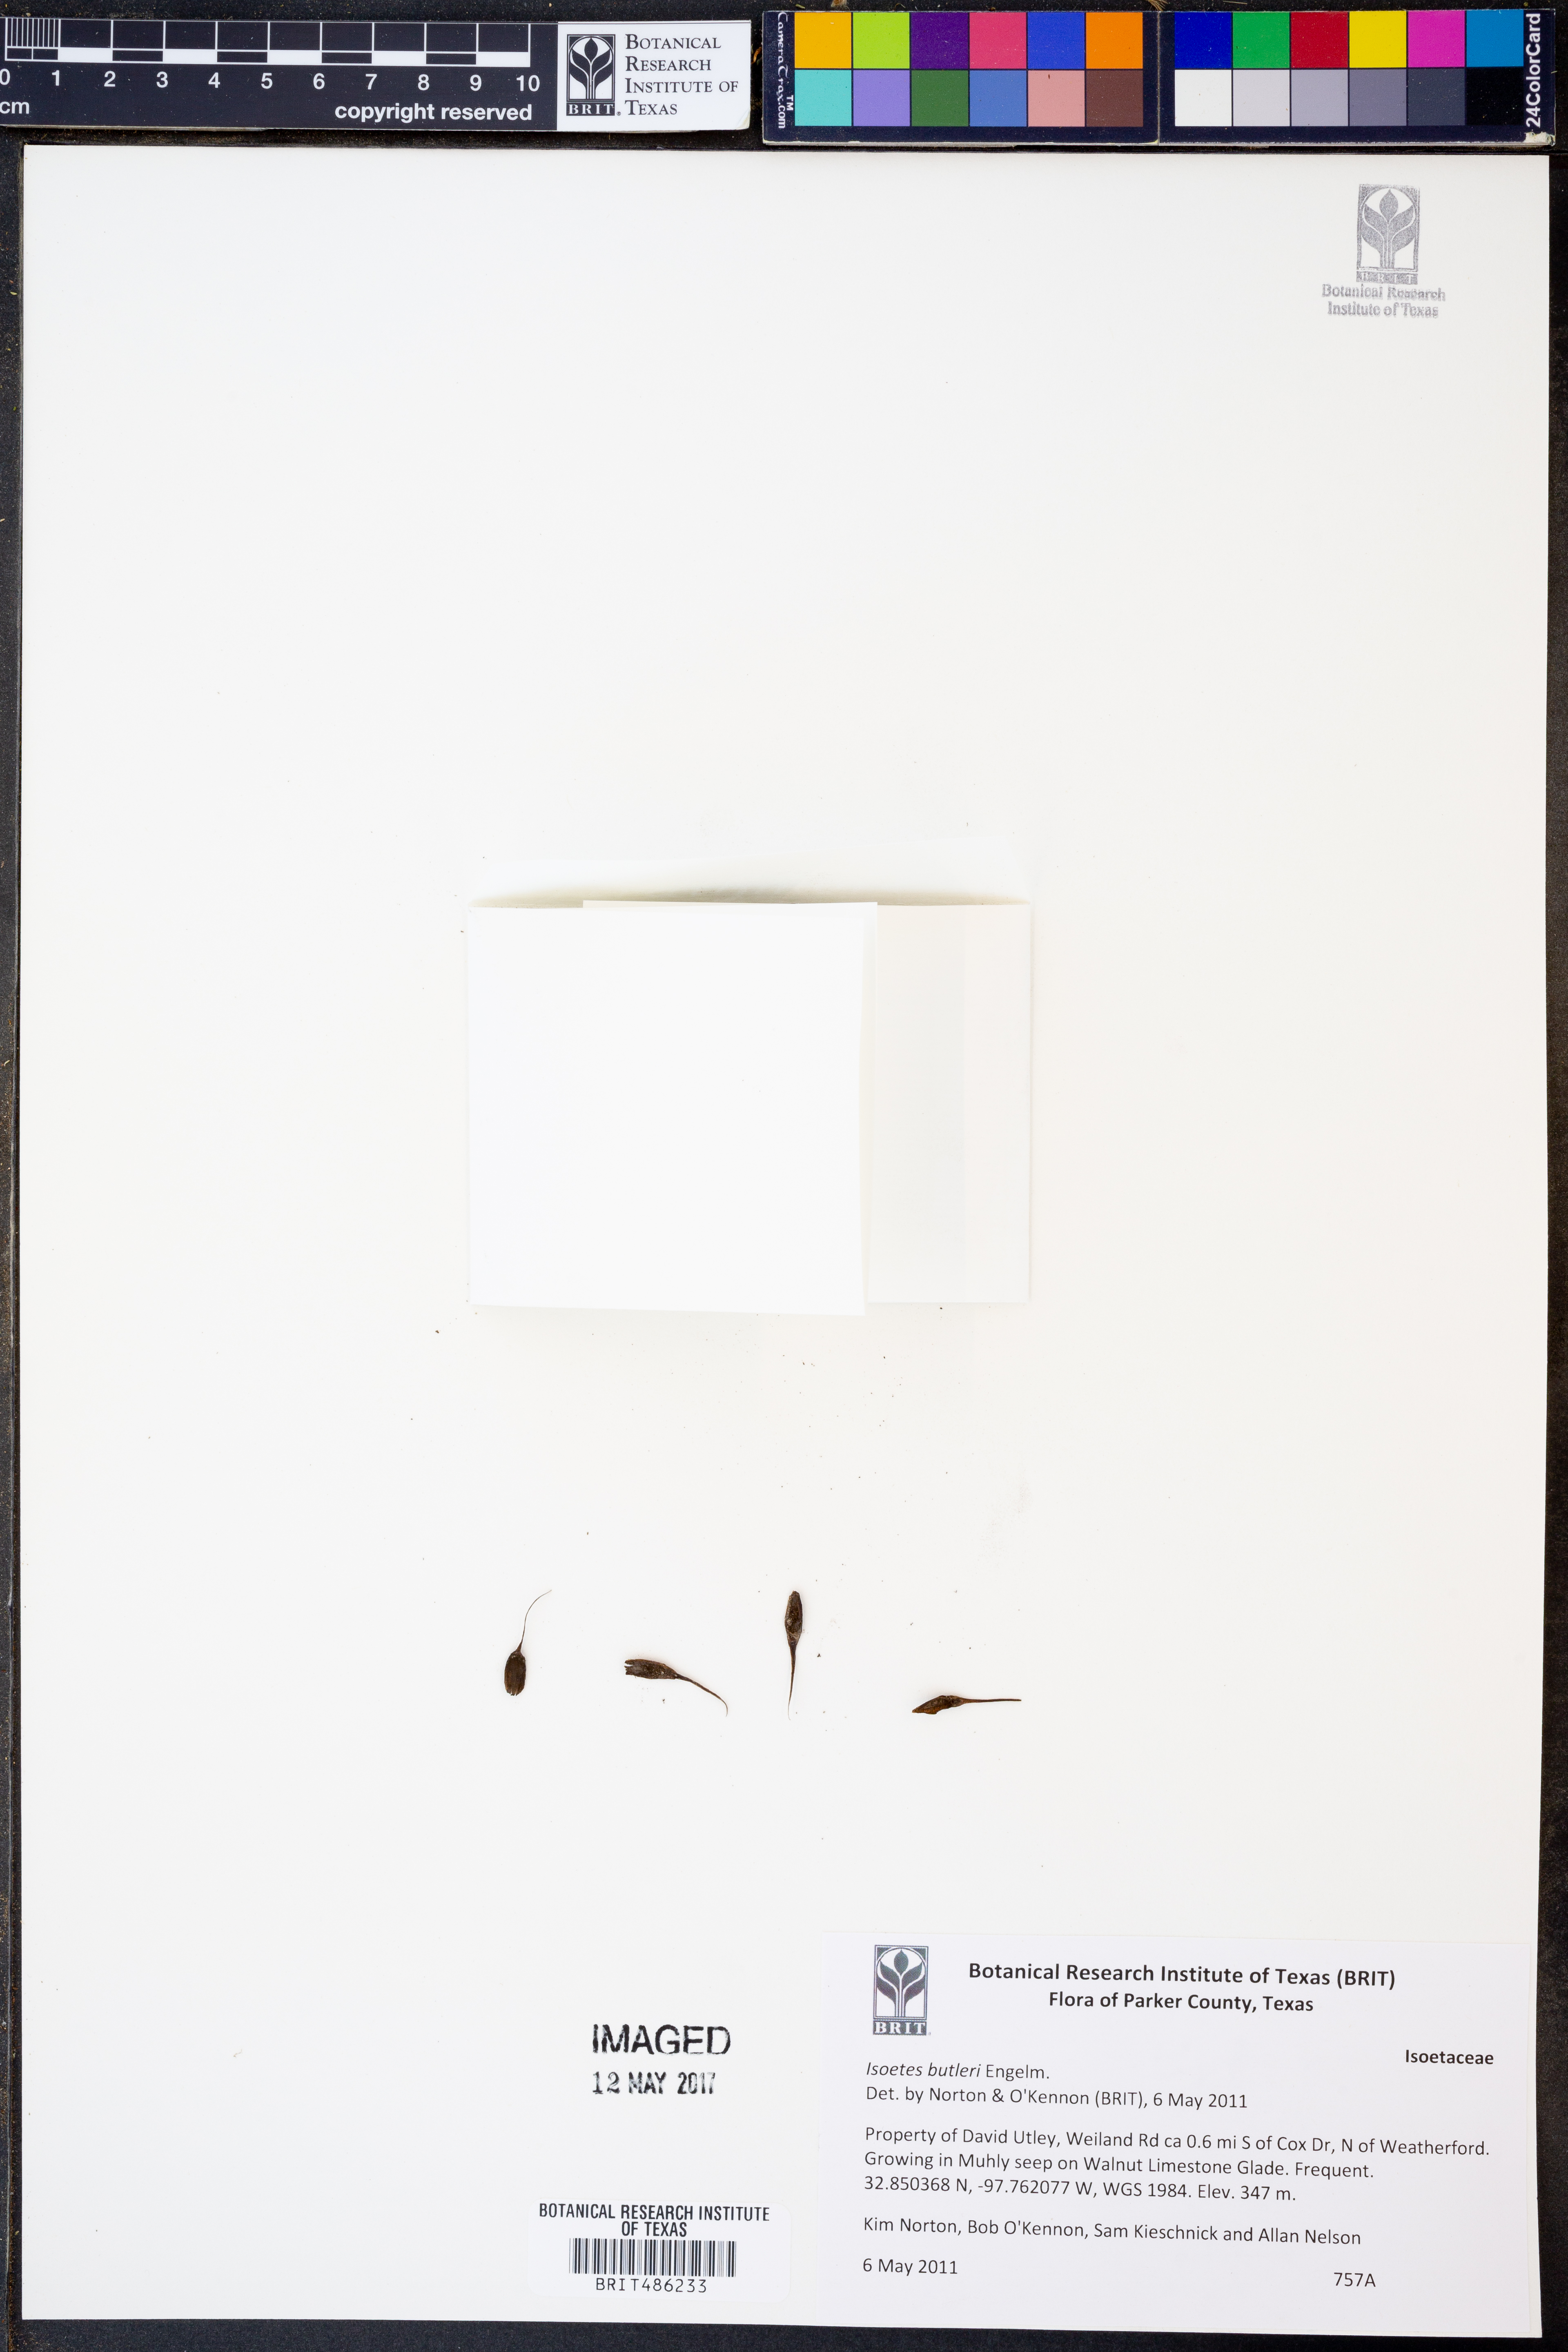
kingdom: Plantae
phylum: Tracheophyta
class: Lycopodiopsida
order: Isoetales
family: Isoetaceae
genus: Isoetes
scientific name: Isoetes butleri
